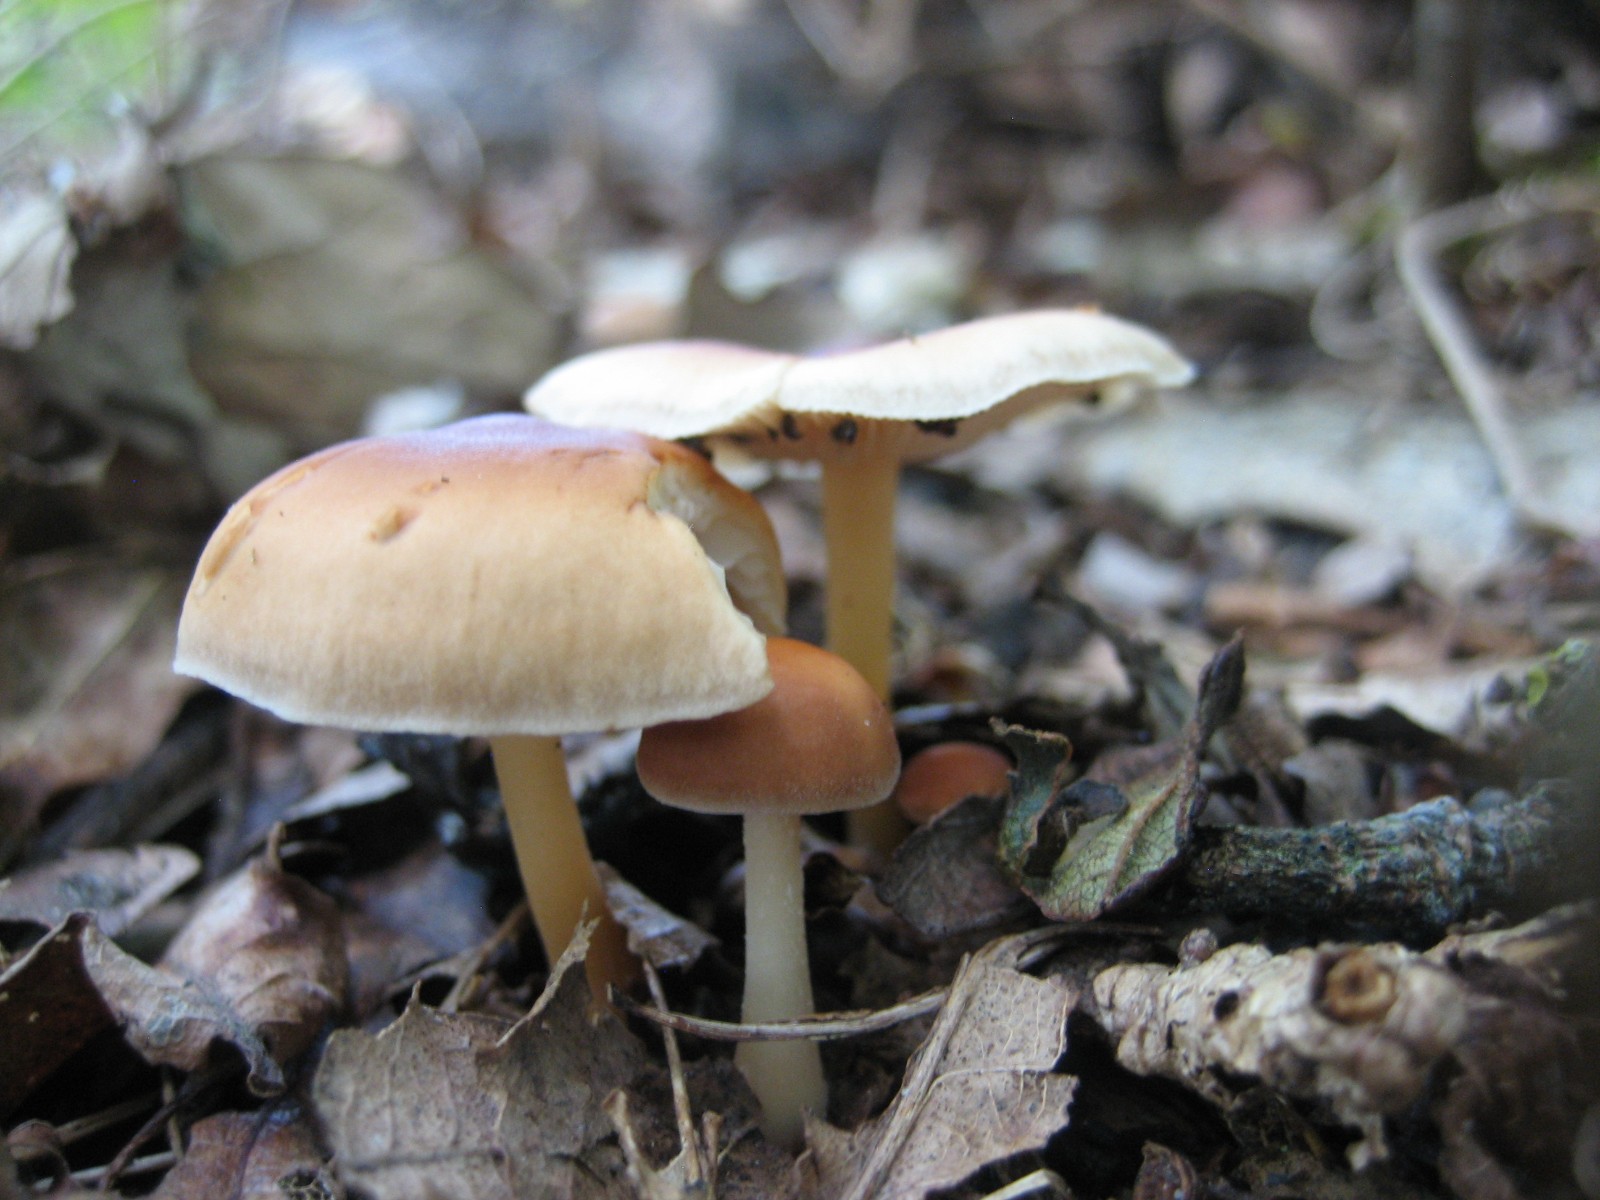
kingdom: Fungi
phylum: Basidiomycota
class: Agaricomycetes
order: Agaricales
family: Omphalotaceae
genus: Gymnopus
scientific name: Gymnopus
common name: fladhat
